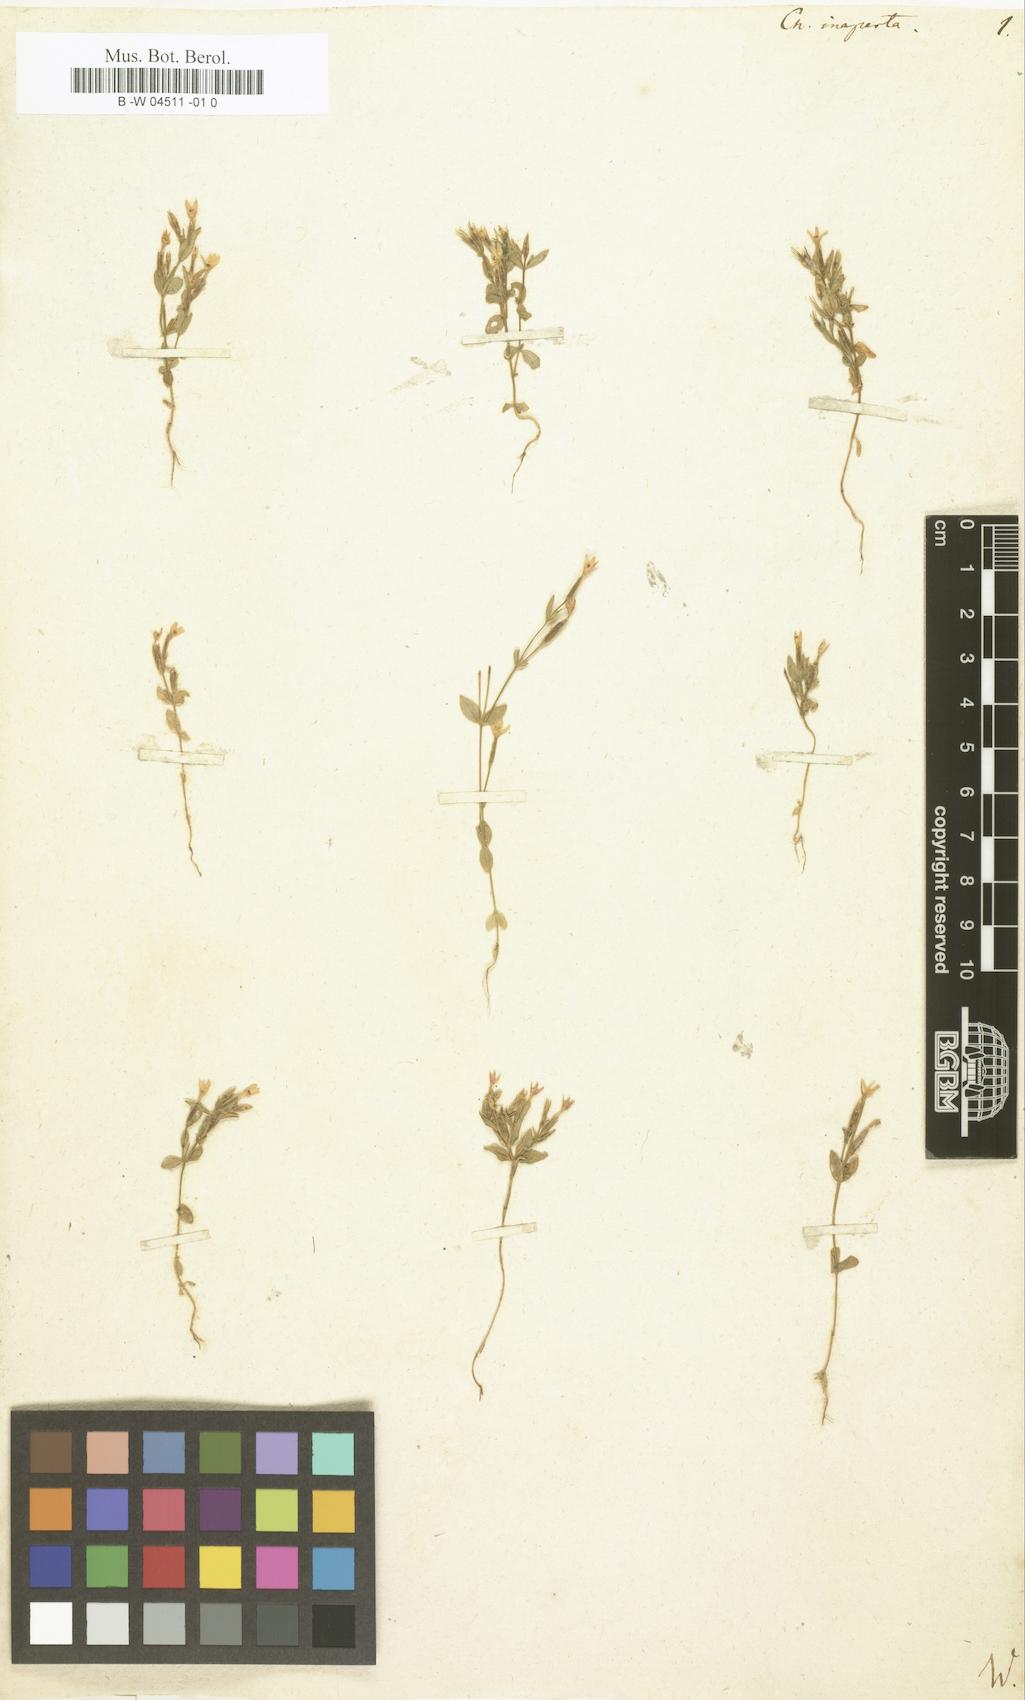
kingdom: Plantae
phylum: Tracheophyta
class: Magnoliopsida
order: Gentianales
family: Gentianaceae
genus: Centaurium
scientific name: Centaurium pulchellum
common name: Lesser centaury
